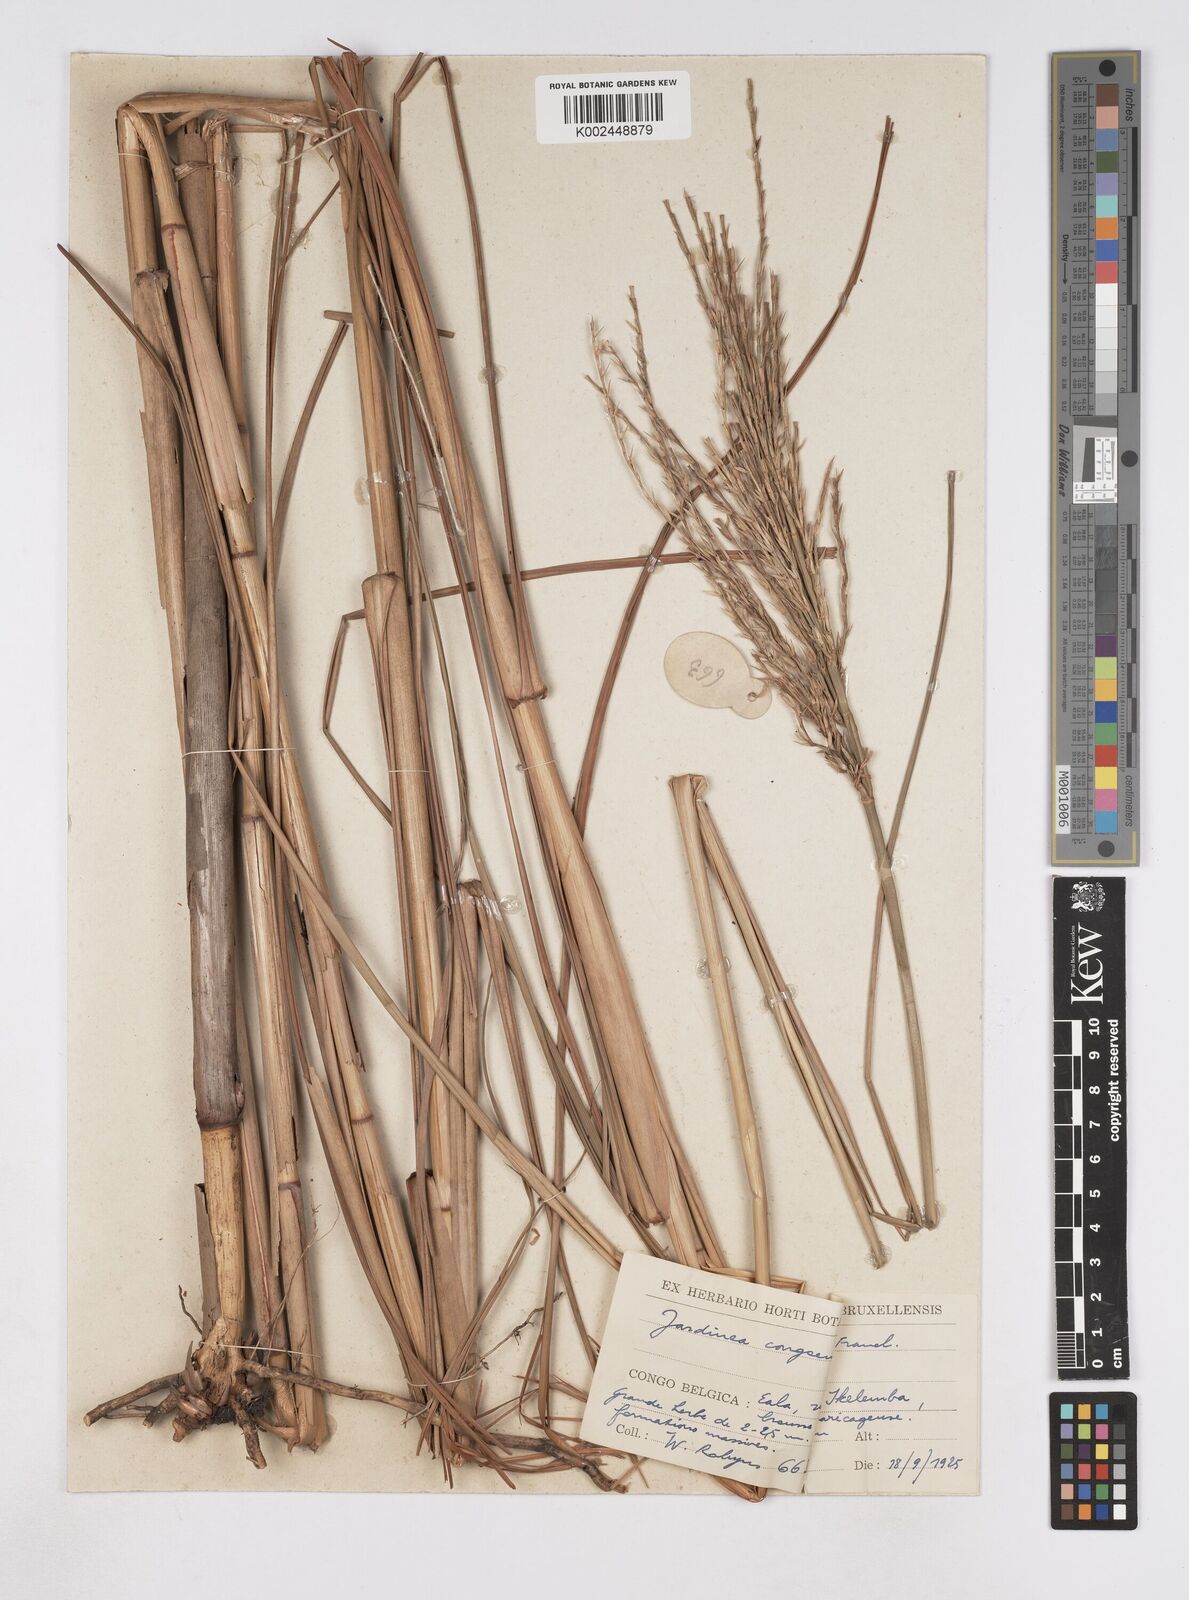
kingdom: Plantae
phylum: Tracheophyta
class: Liliopsida
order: Poales
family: Poaceae
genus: Phacelurus
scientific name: Phacelurus gabonensis
